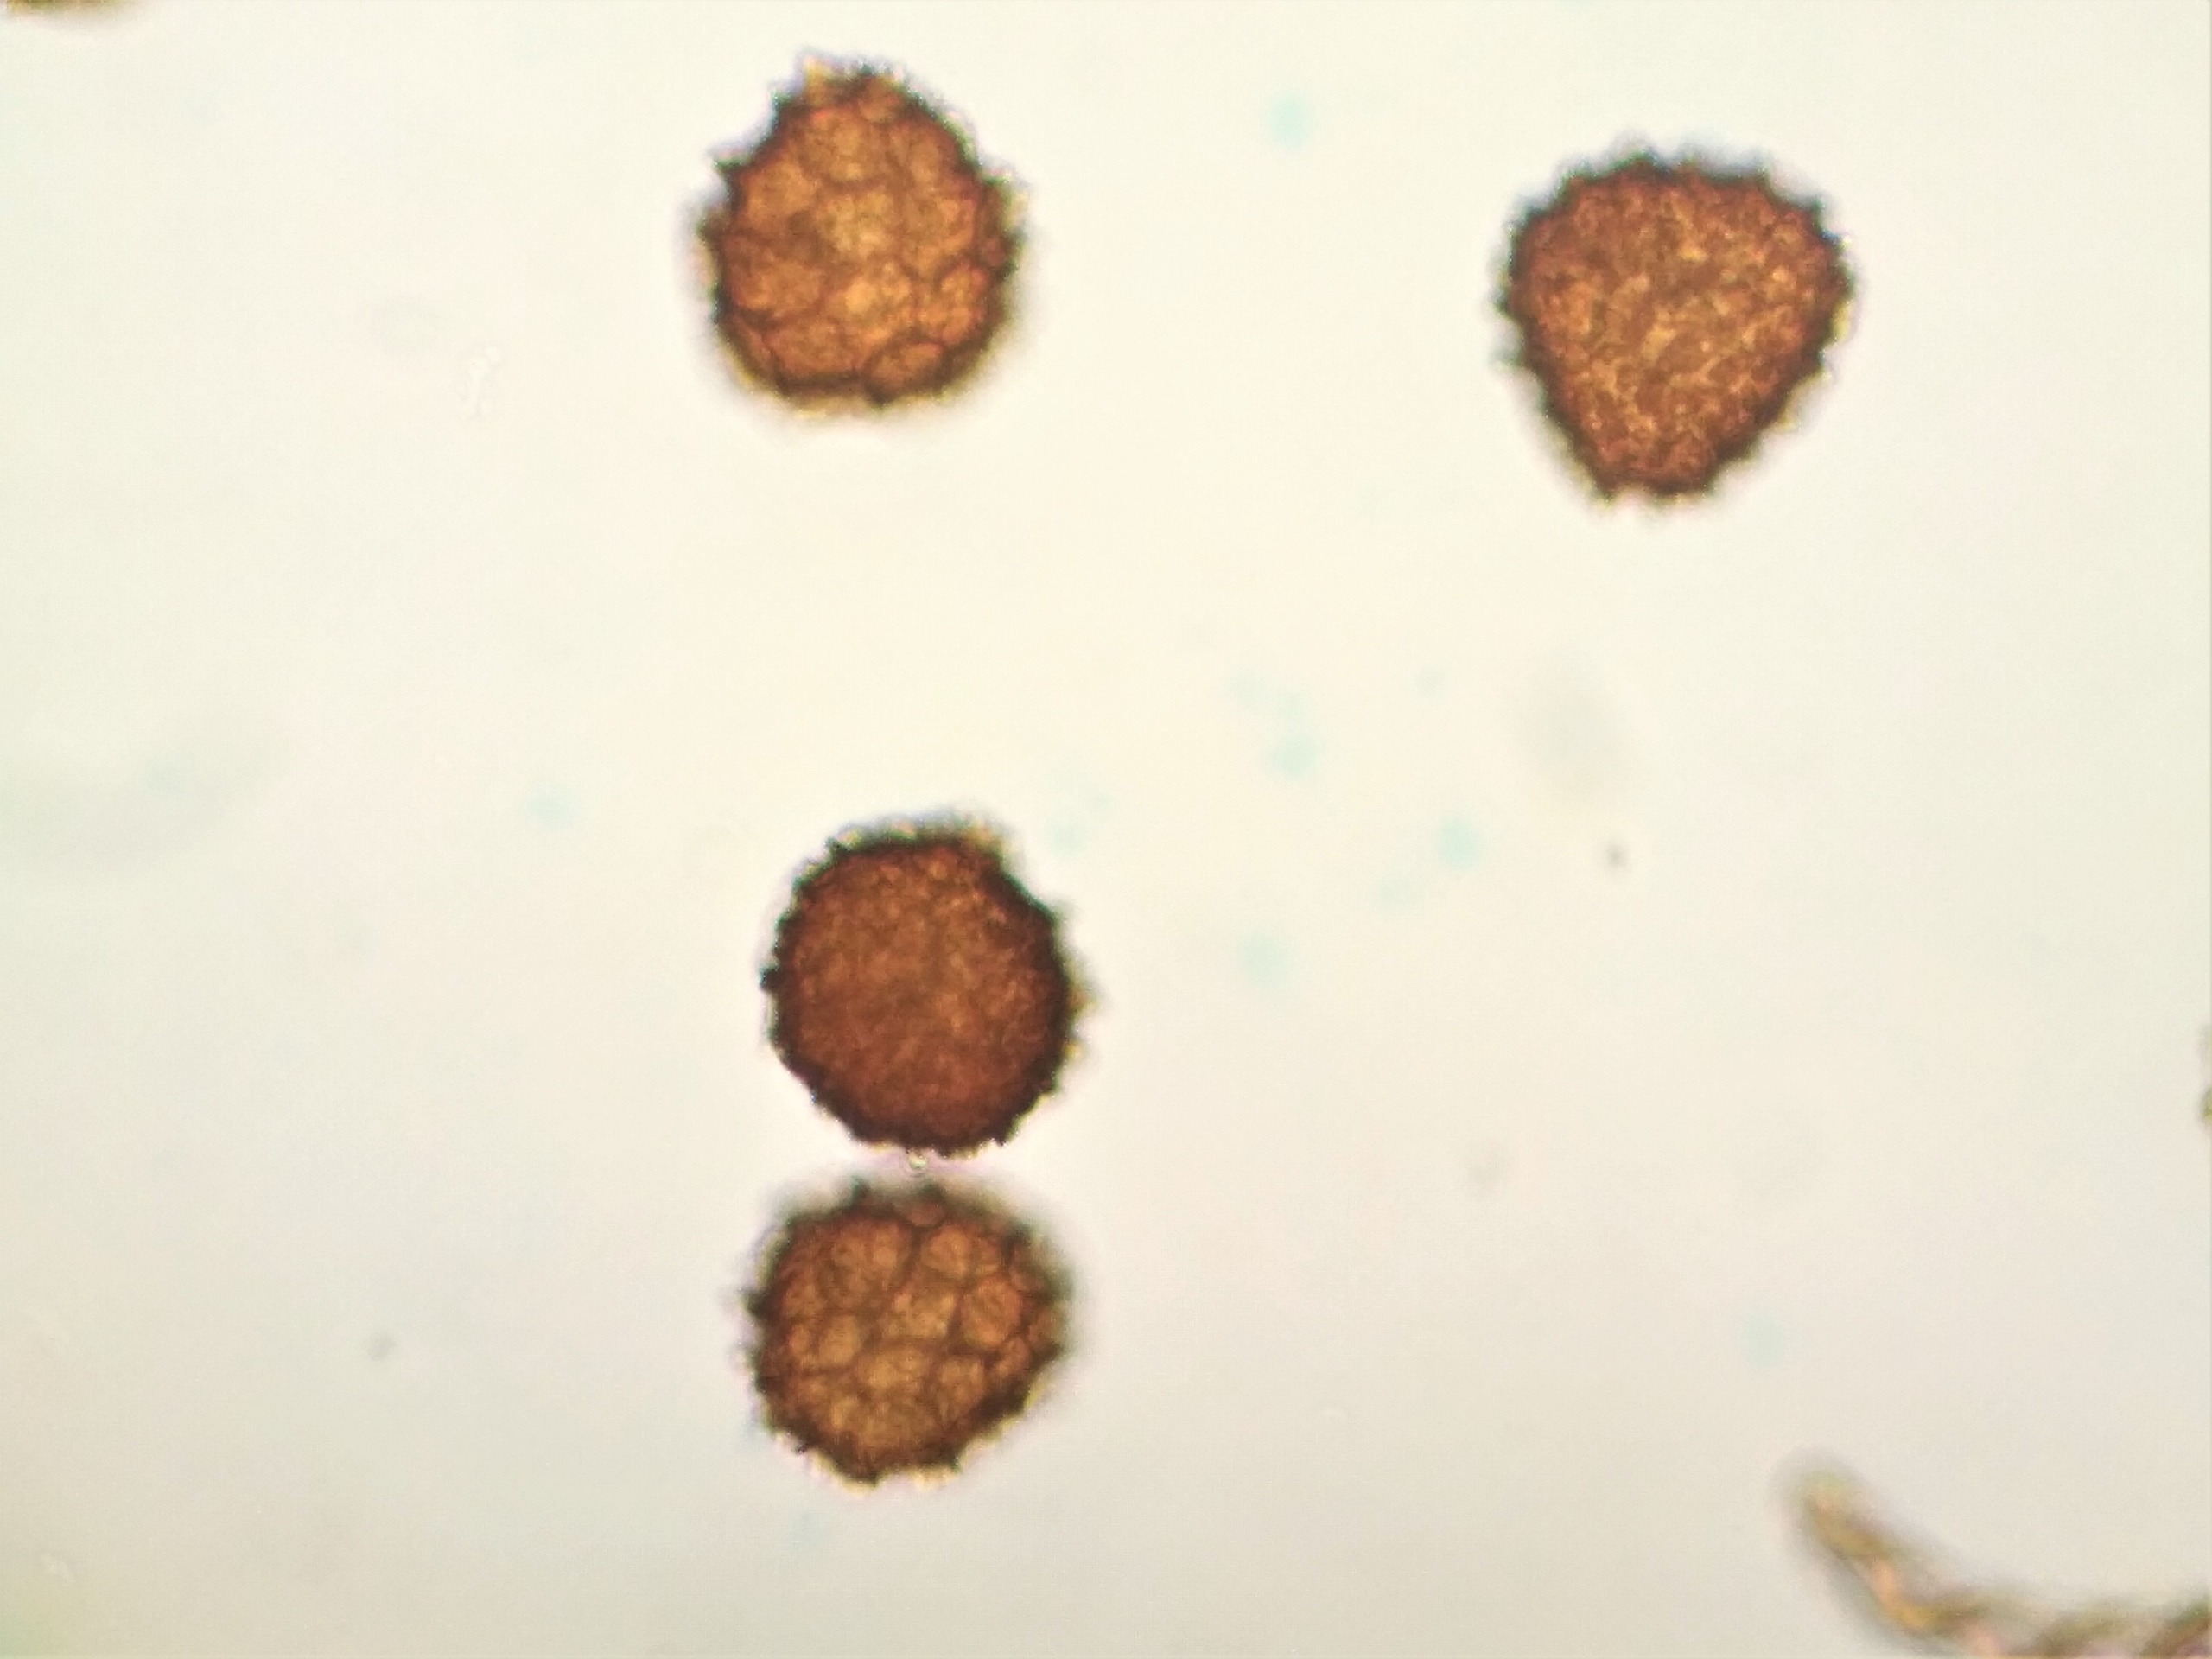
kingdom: Plantae
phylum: Marchantiophyta
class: Jungermanniopsida
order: Fossombroniales
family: Fossombroniaceae
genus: Fossombronia
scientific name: Fossombronia foveolata
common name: Netsporet klokkesvøb
